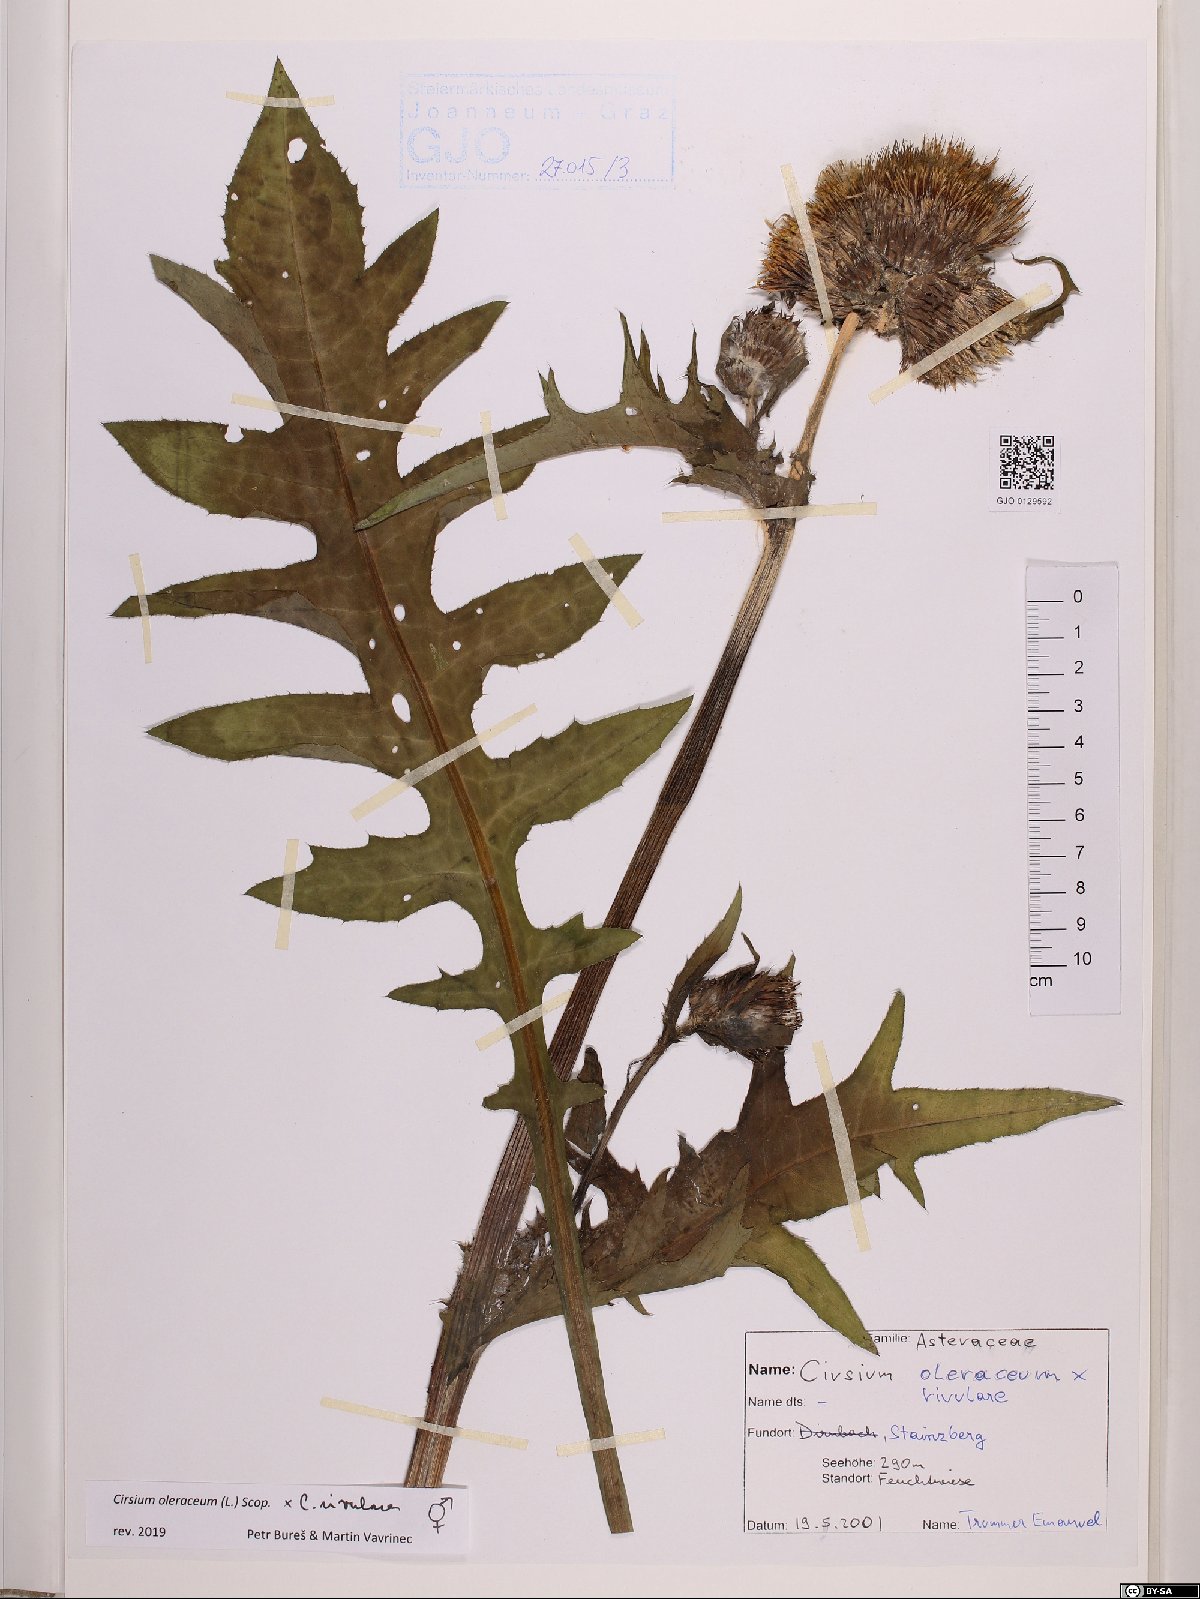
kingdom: Plantae
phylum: Tracheophyta
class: Magnoliopsida
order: Asterales
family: Asteraceae
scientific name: Asteraceae
